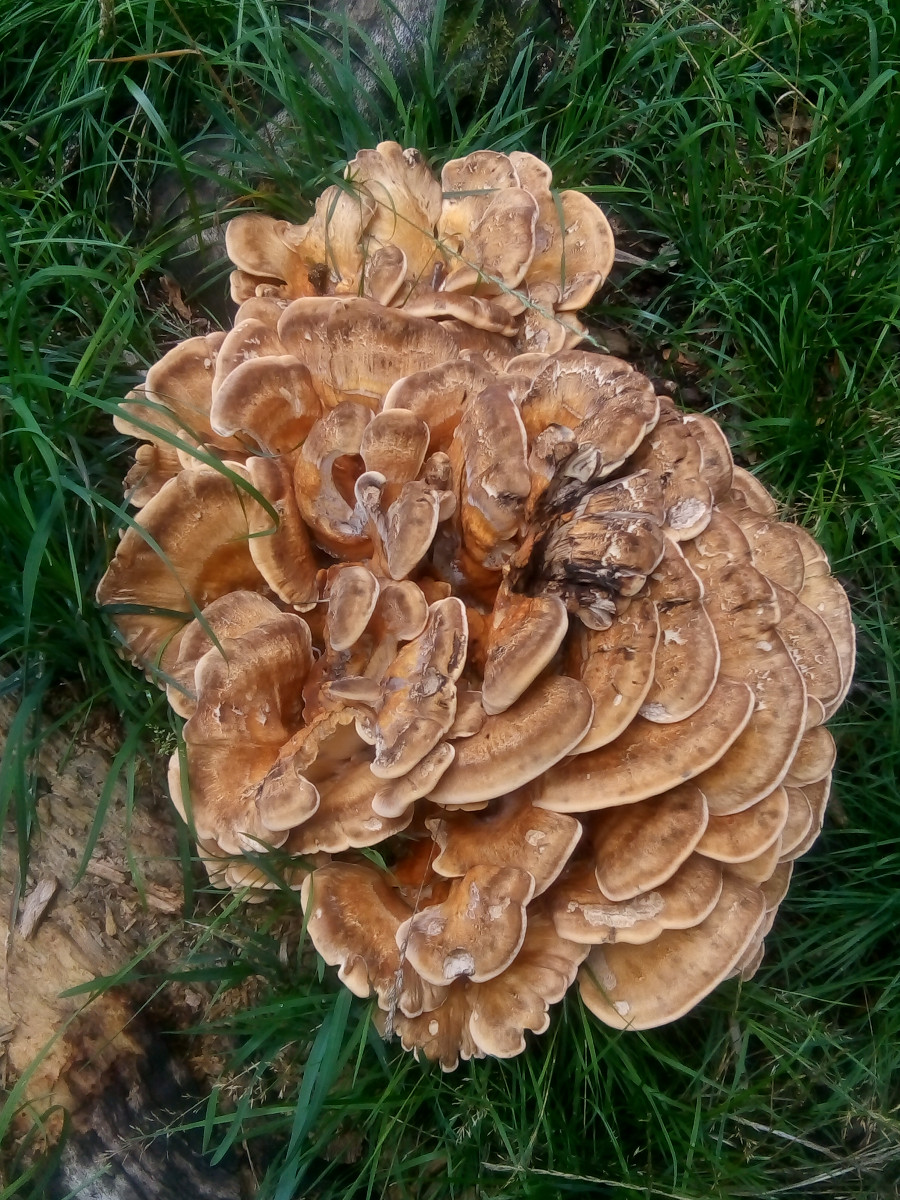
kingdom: Fungi
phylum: Basidiomycota
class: Agaricomycetes
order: Polyporales
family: Meripilaceae
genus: Meripilus
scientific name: Meripilus giganteus
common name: kæmpeporesvamp
